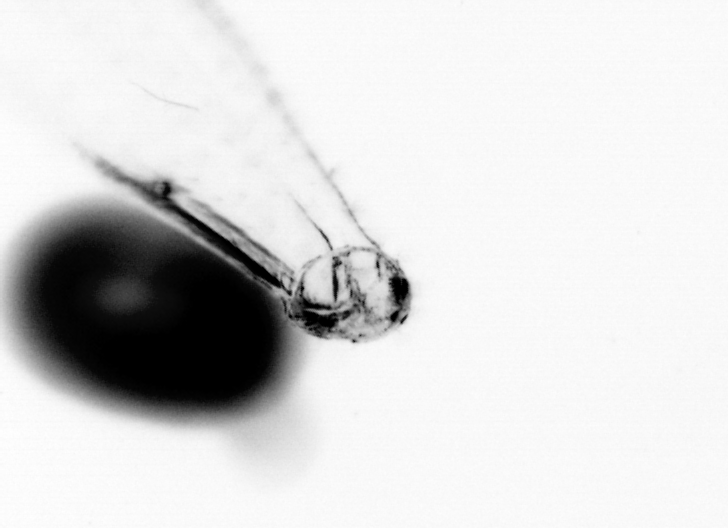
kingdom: Animalia
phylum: Chaetognatha
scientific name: Chaetognatha
